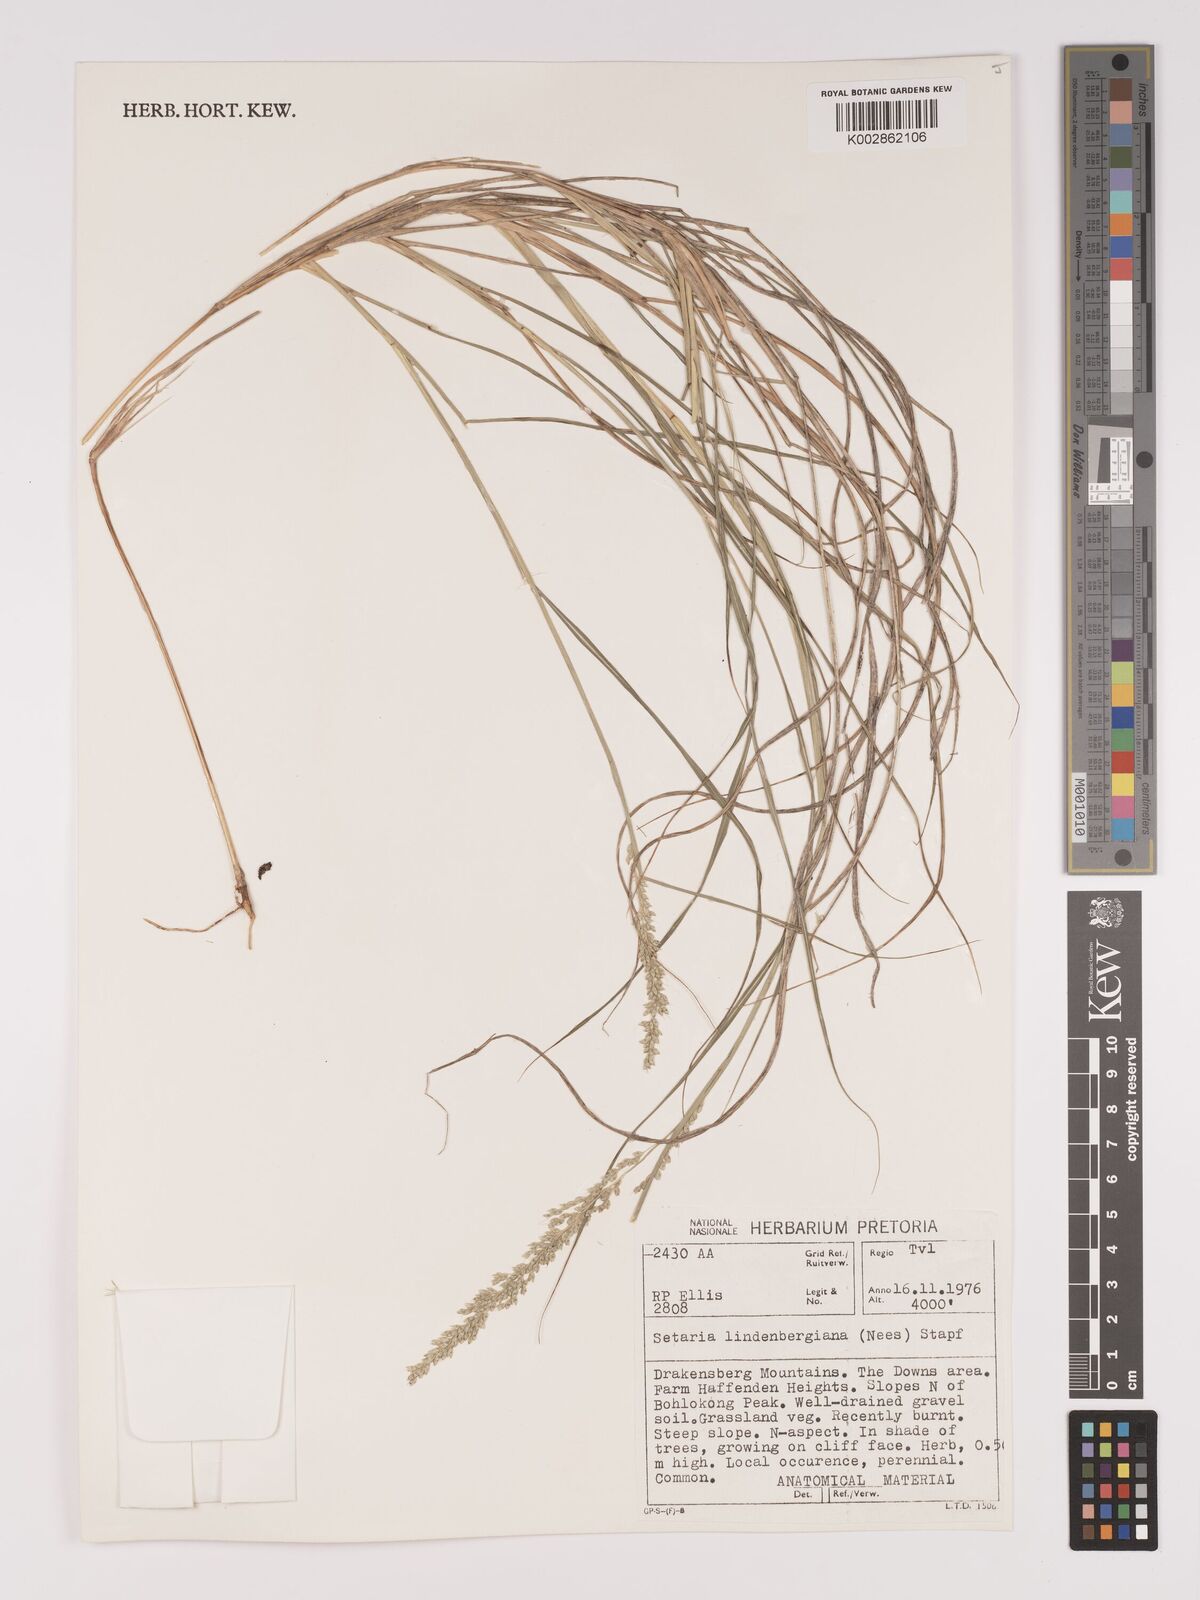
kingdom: Plantae
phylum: Tracheophyta
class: Liliopsida
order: Poales
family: Poaceae
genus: Setaria
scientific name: Setaria lindenbergiana
